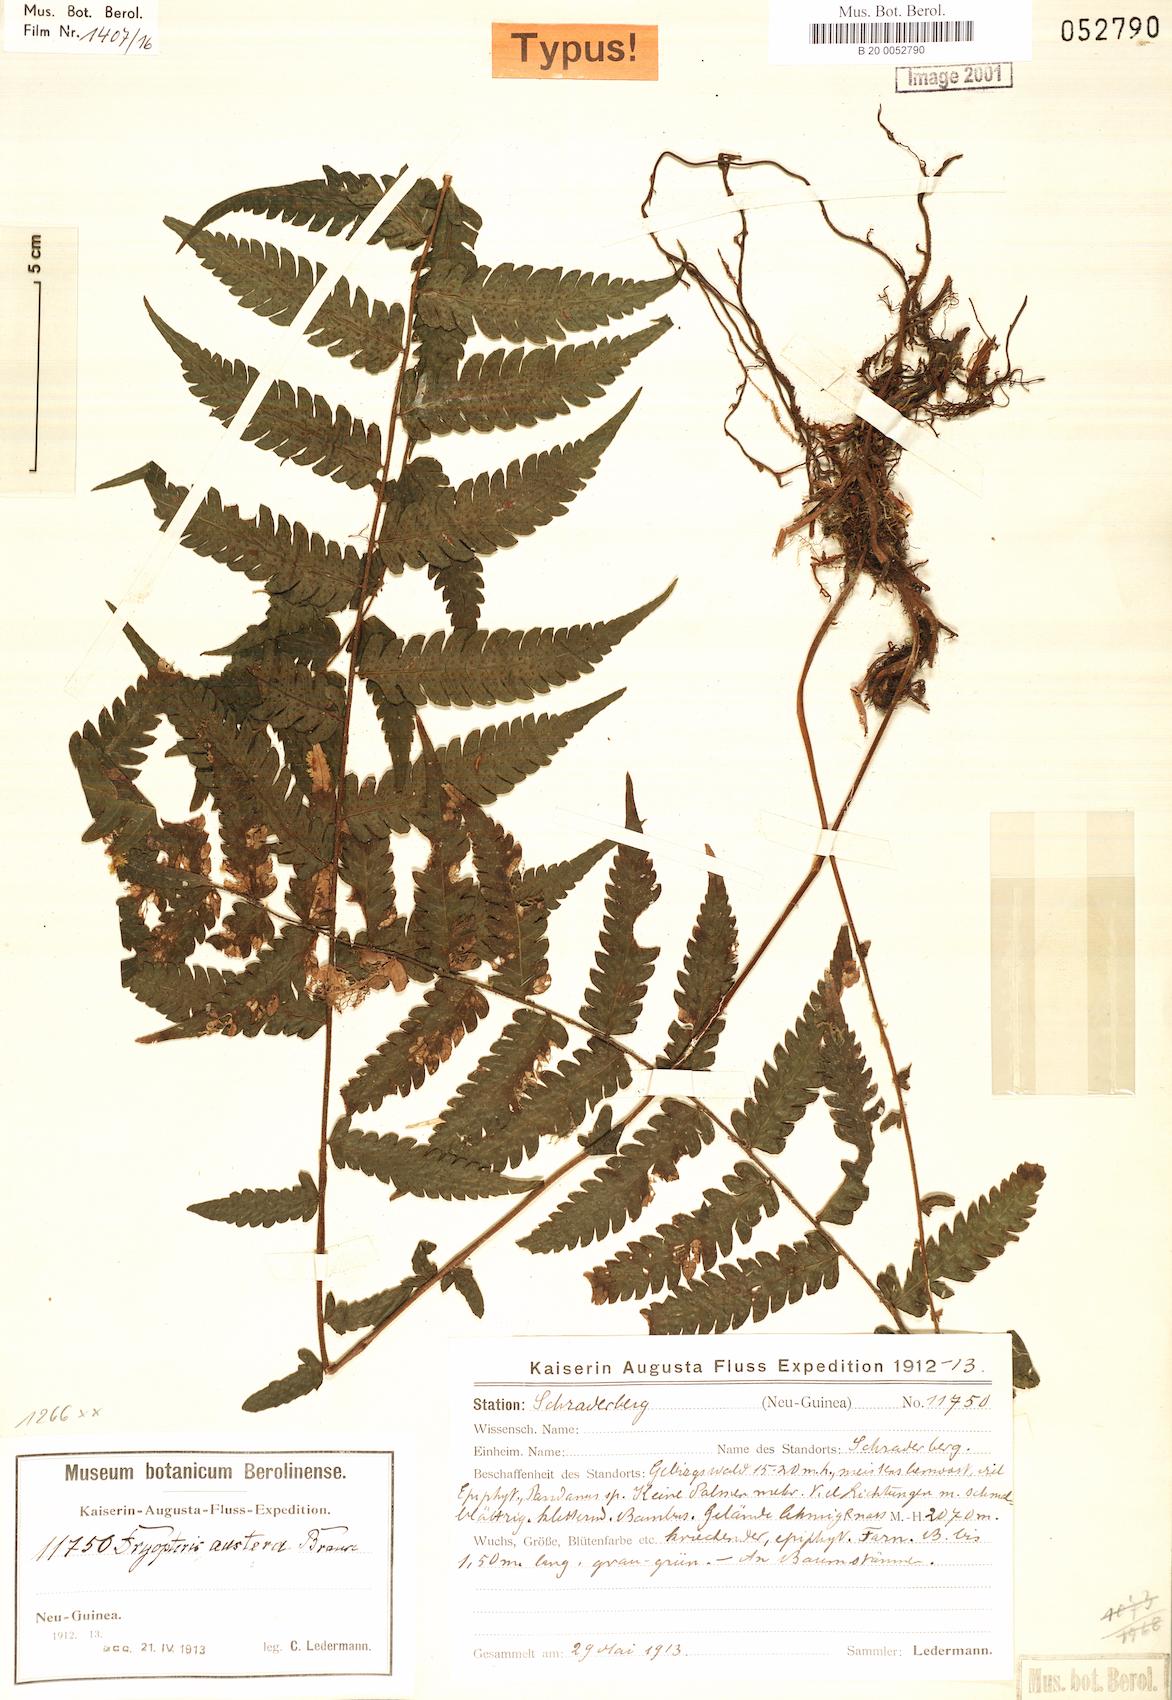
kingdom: Plantae
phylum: Tracheophyta
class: Polypodiopsida
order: Polypodiales
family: Thelypteridaceae
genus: Sphaerostephanos
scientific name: Sphaerostephanos austerus
